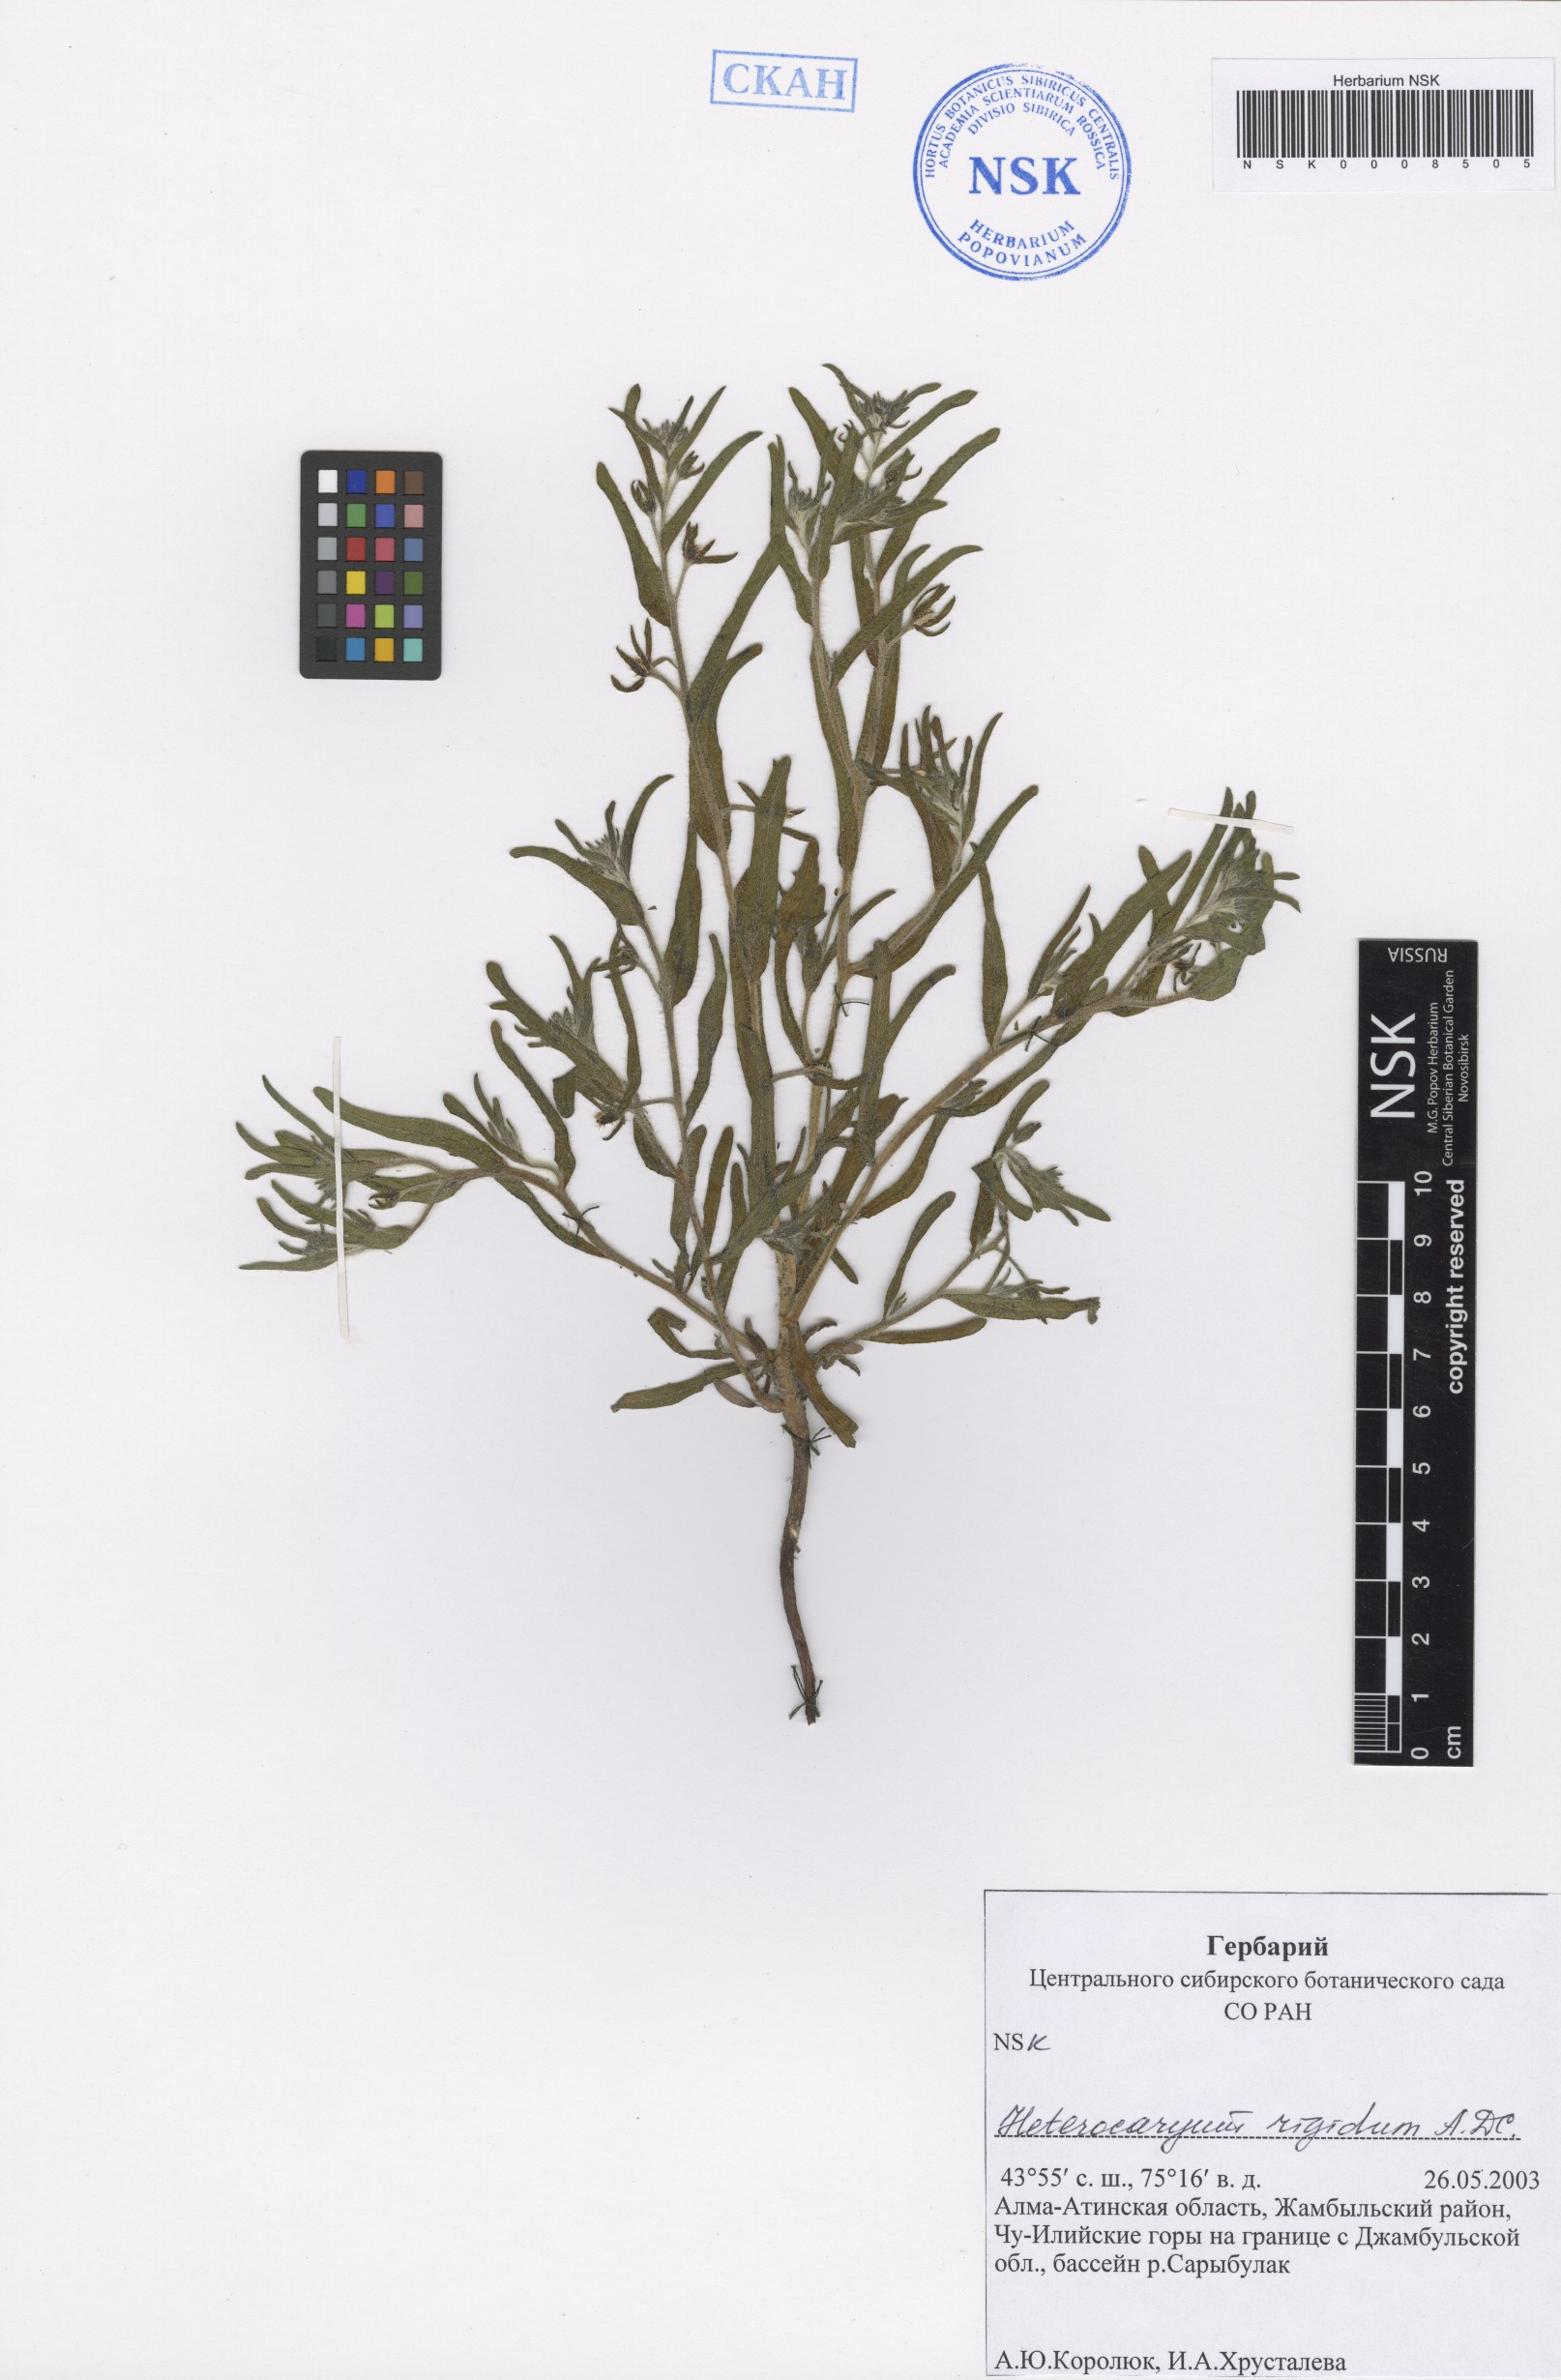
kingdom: Plantae
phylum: Tracheophyta
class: Magnoliopsida
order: Boraginales
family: Boraginaceae
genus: Pseudoheterocaryum
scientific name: Pseudoheterocaryum rigidum
